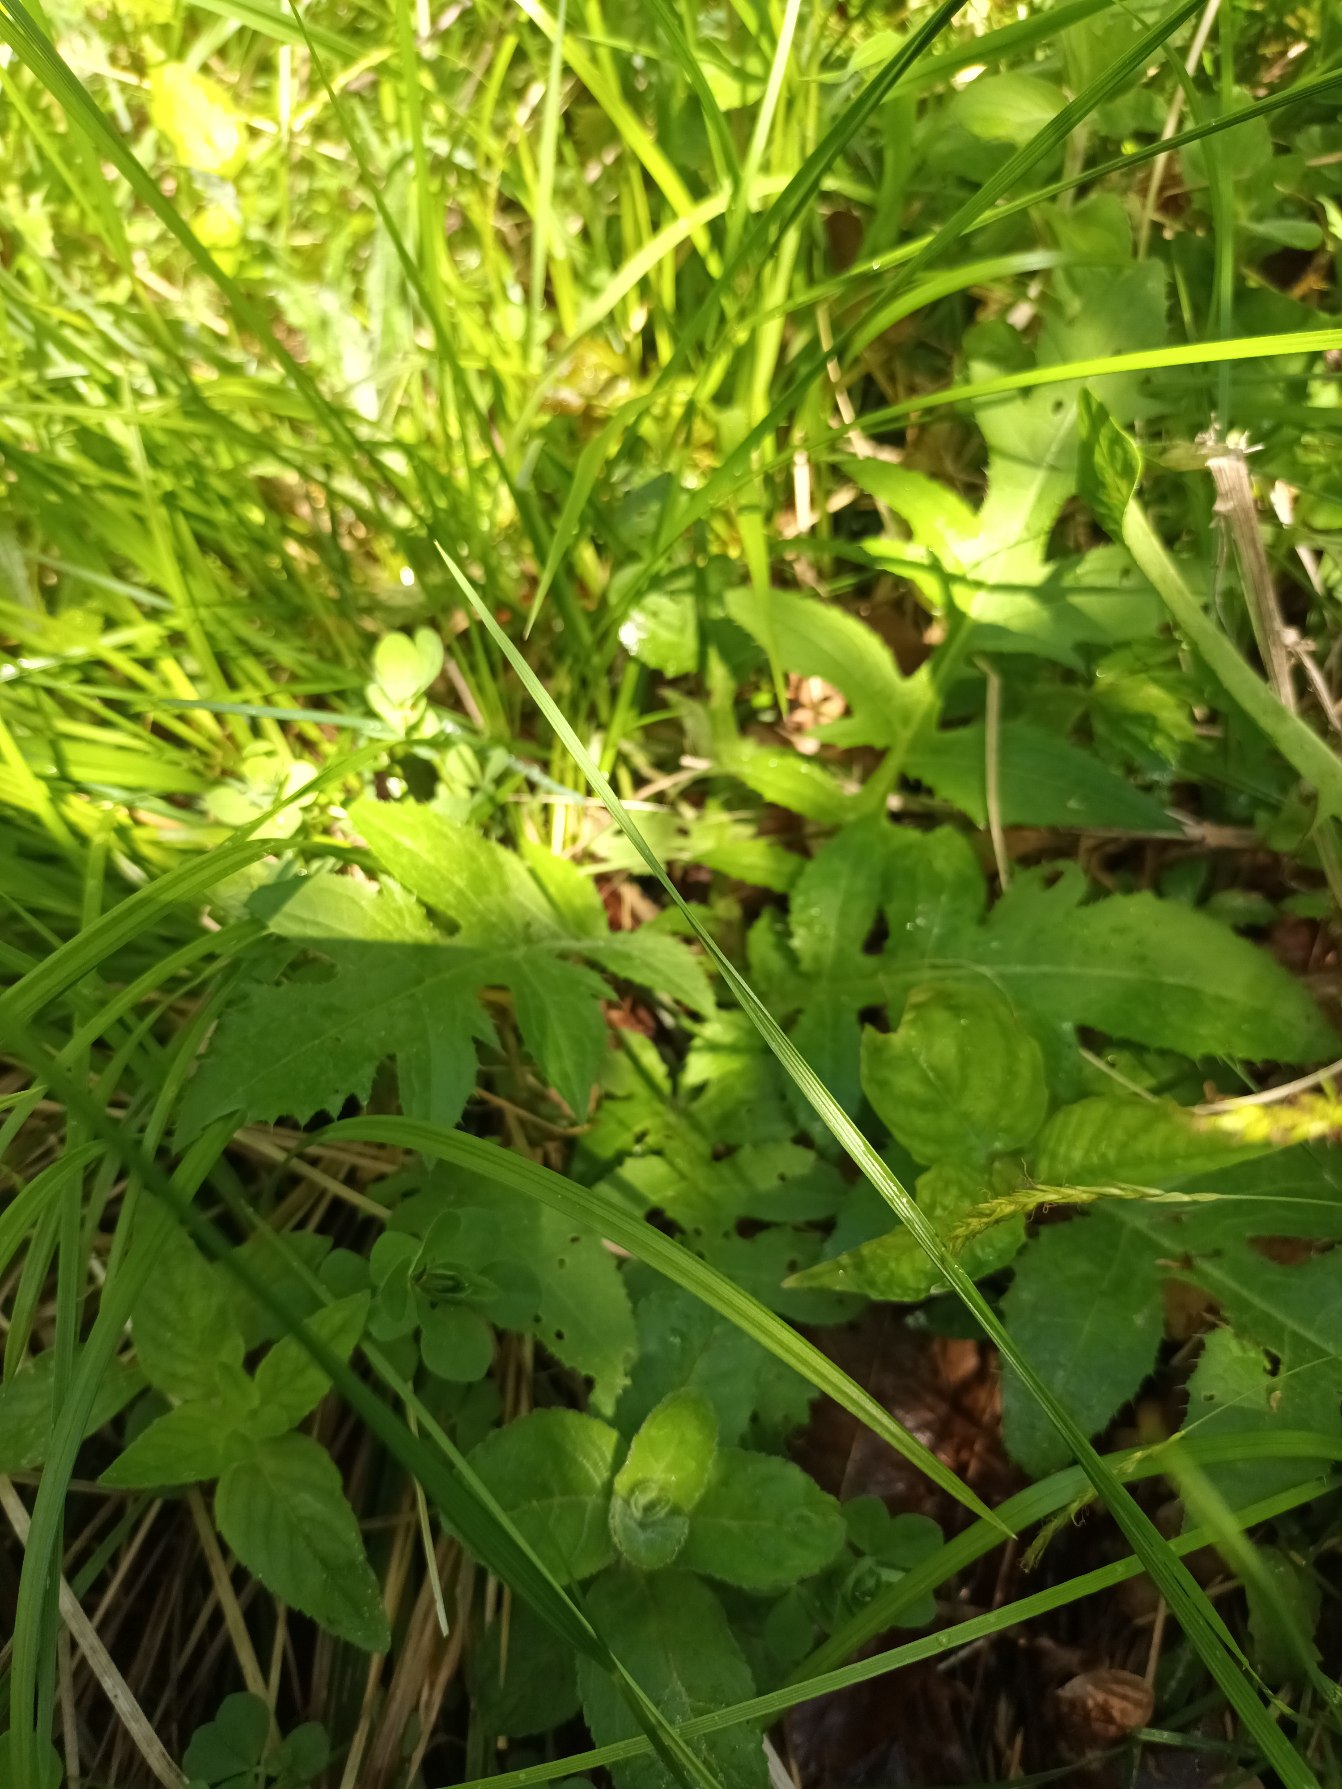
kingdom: Plantae
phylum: Tracheophyta
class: Magnoliopsida
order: Asterales
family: Asteraceae
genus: Cirsium
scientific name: Cirsium oleraceum
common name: Kål-tidsel
